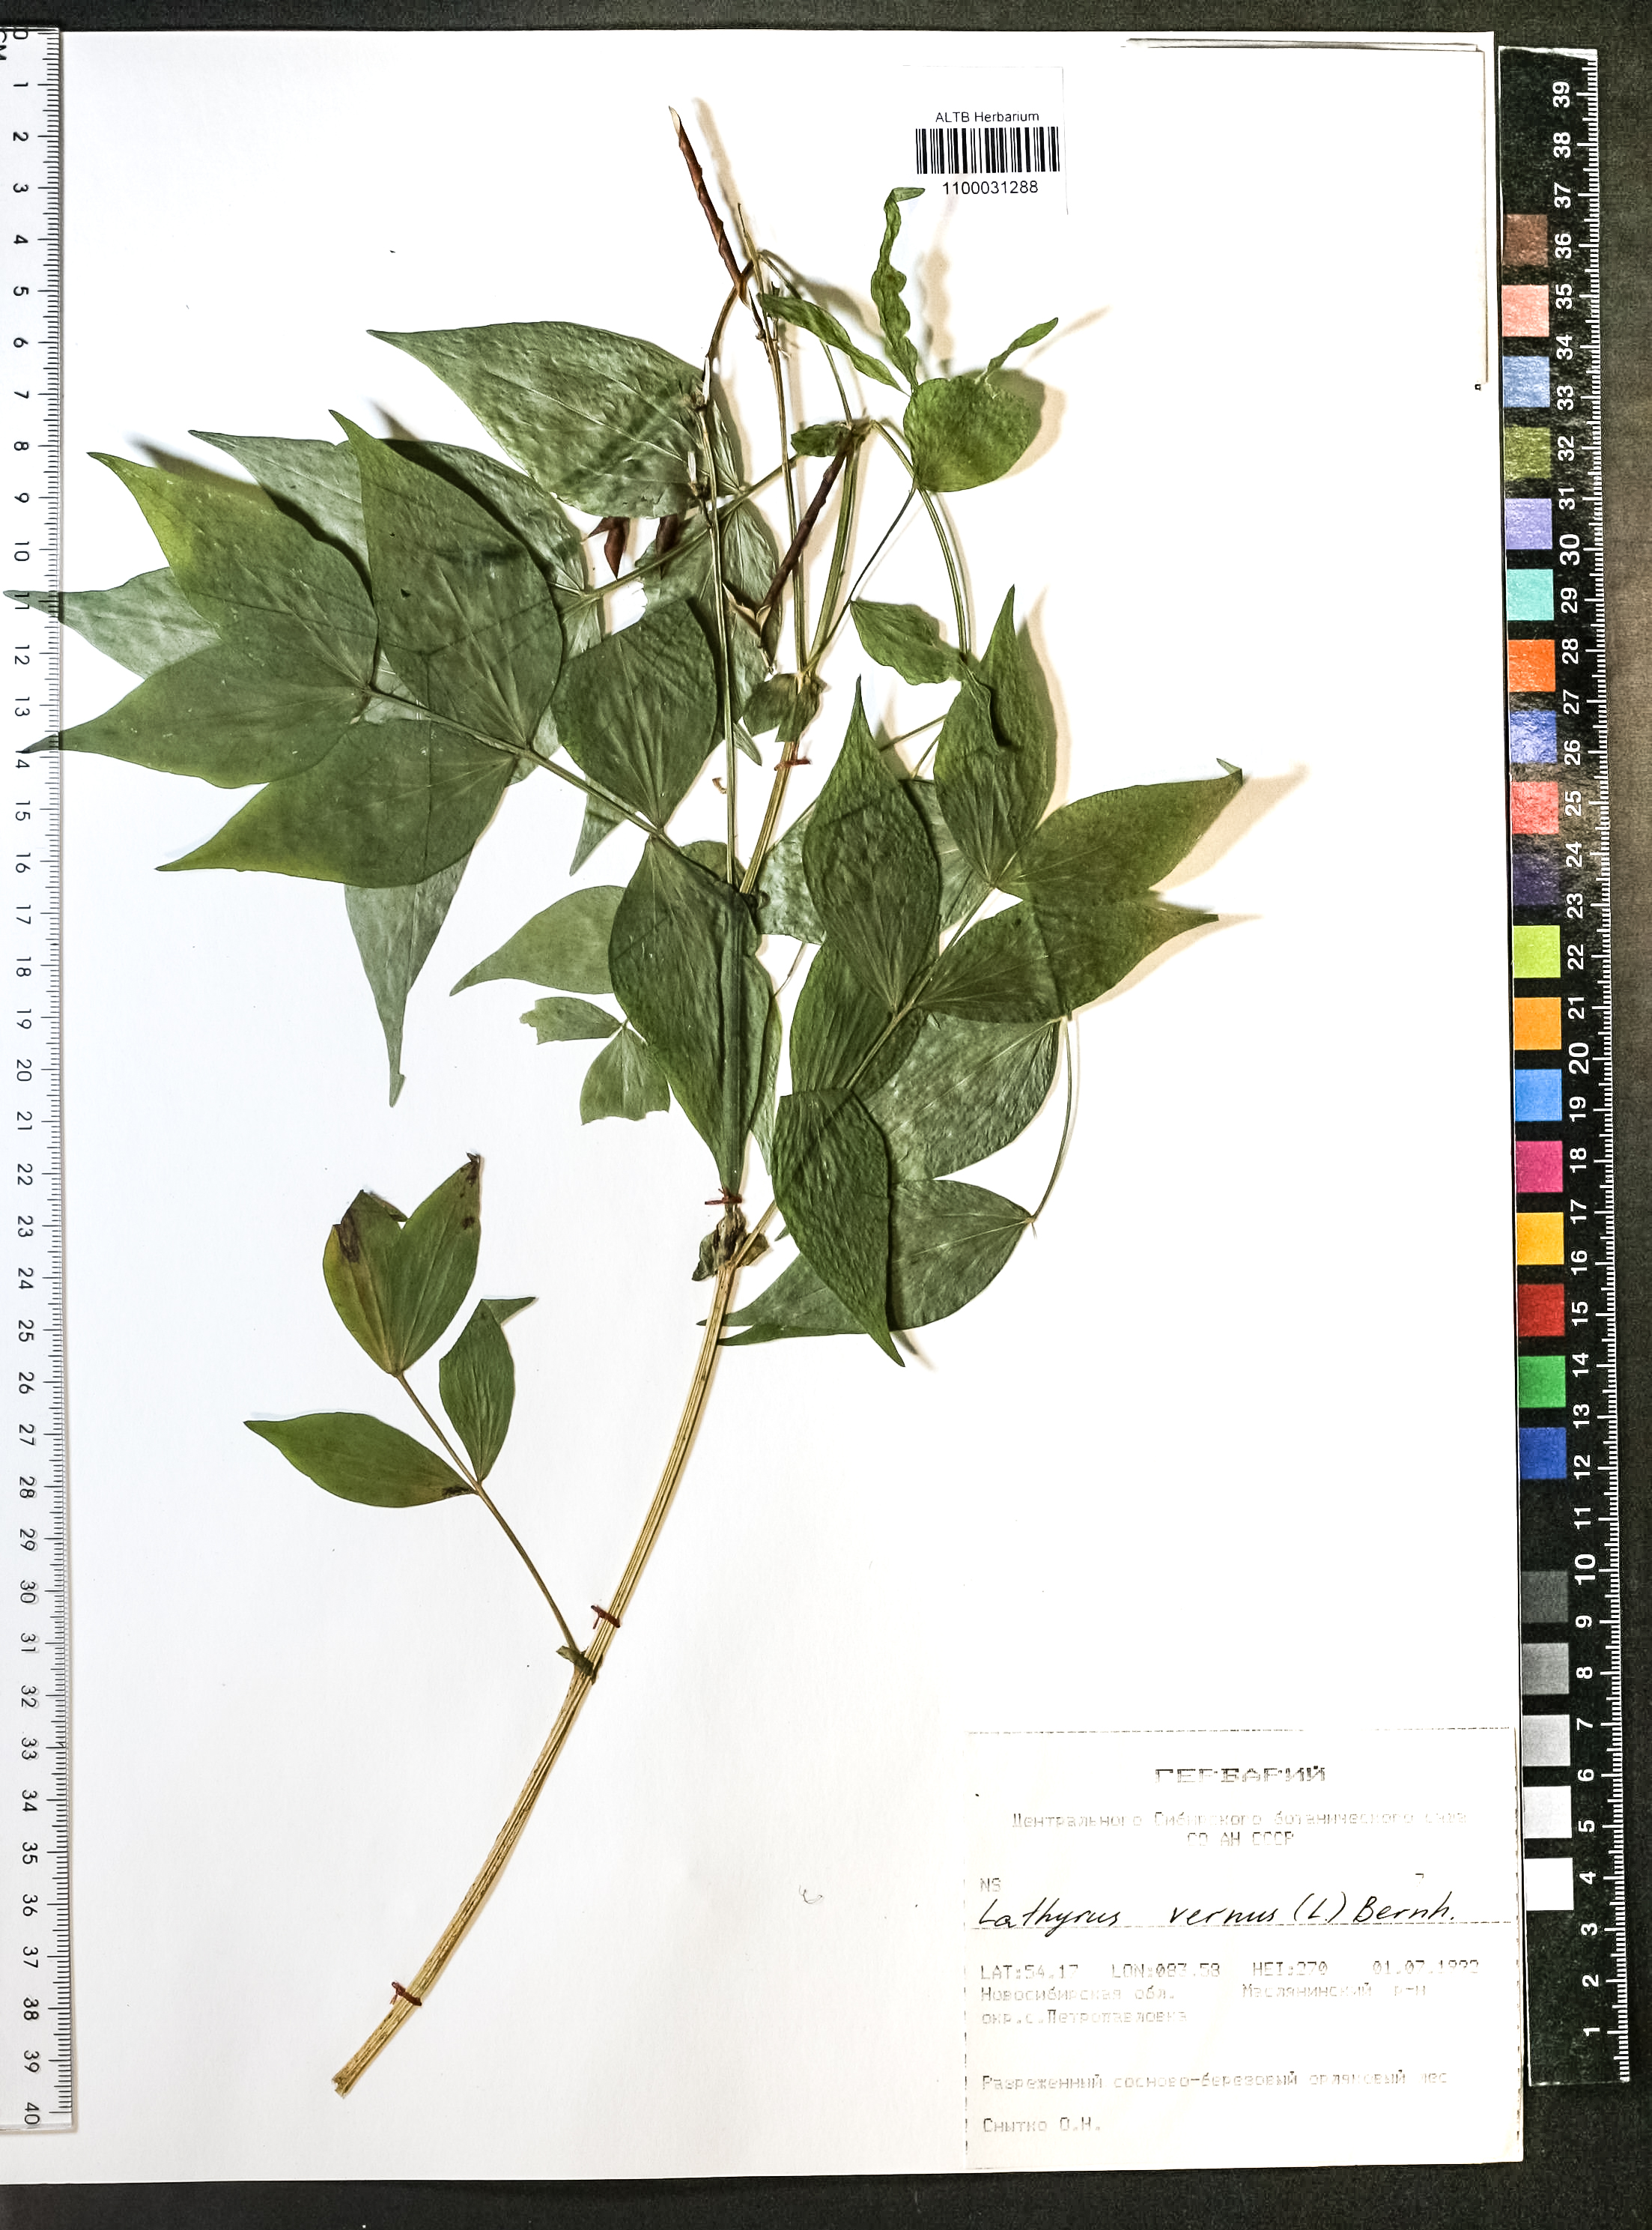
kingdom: Plantae
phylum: Tracheophyta
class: Magnoliopsida
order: Fabales
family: Fabaceae
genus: Lathyrus
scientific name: Lathyrus vernus
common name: Spring pea
